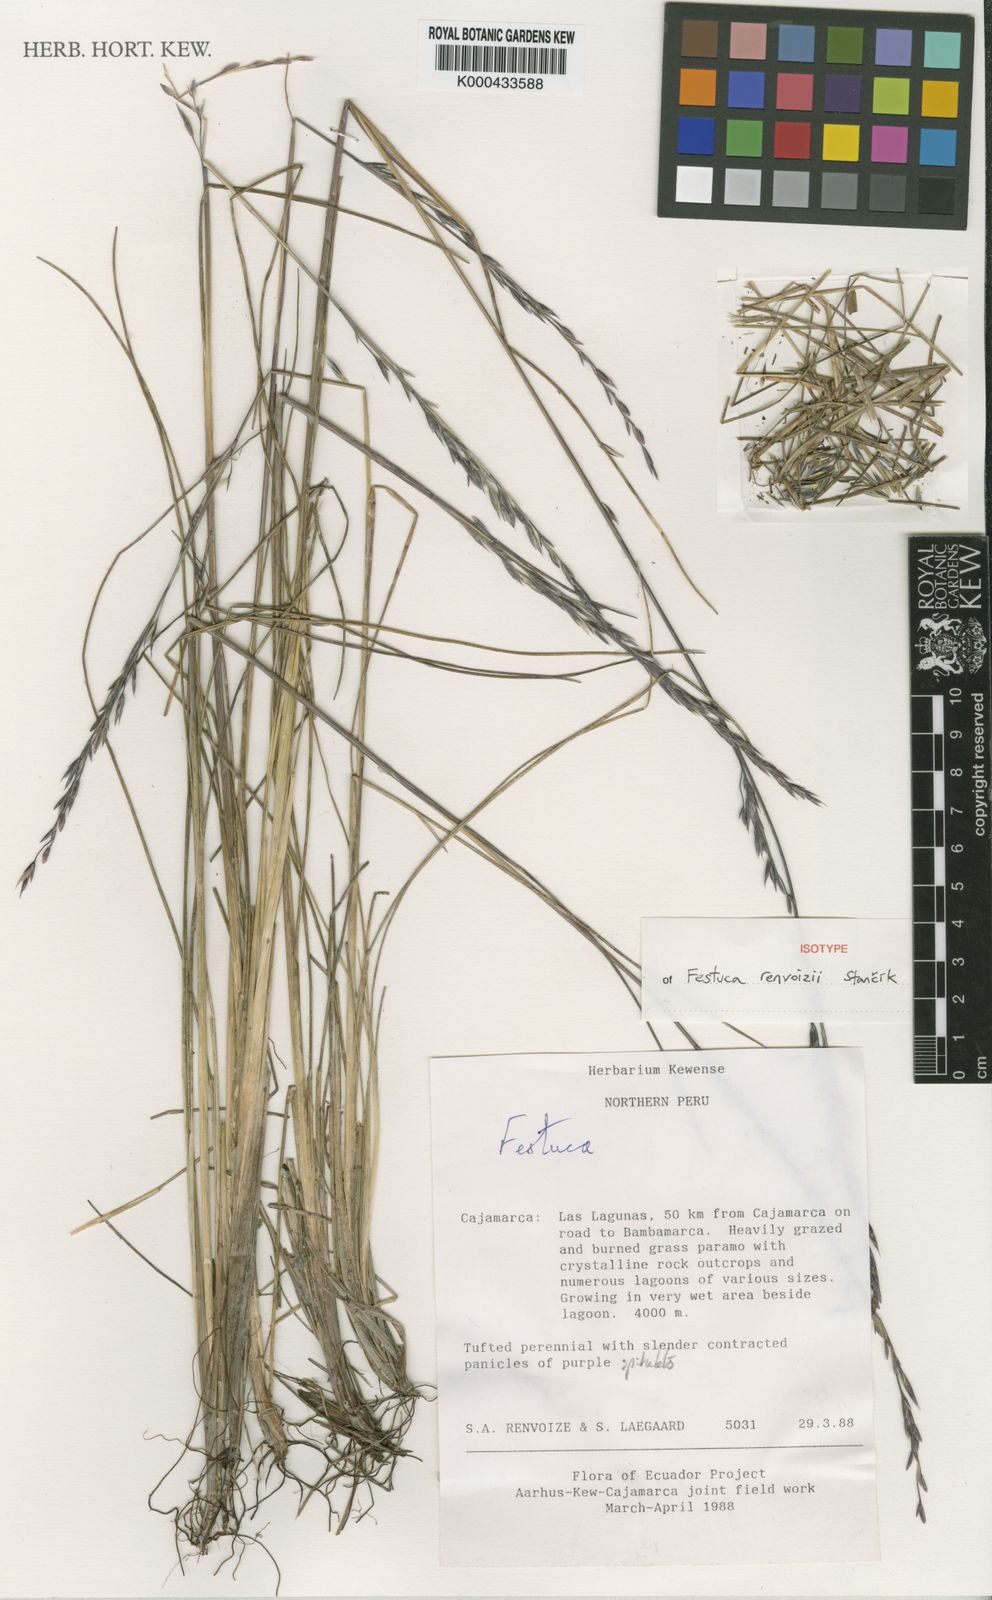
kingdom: Plantae
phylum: Tracheophyta
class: Liliopsida
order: Poales
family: Poaceae
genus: Festuca
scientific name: Festuca
